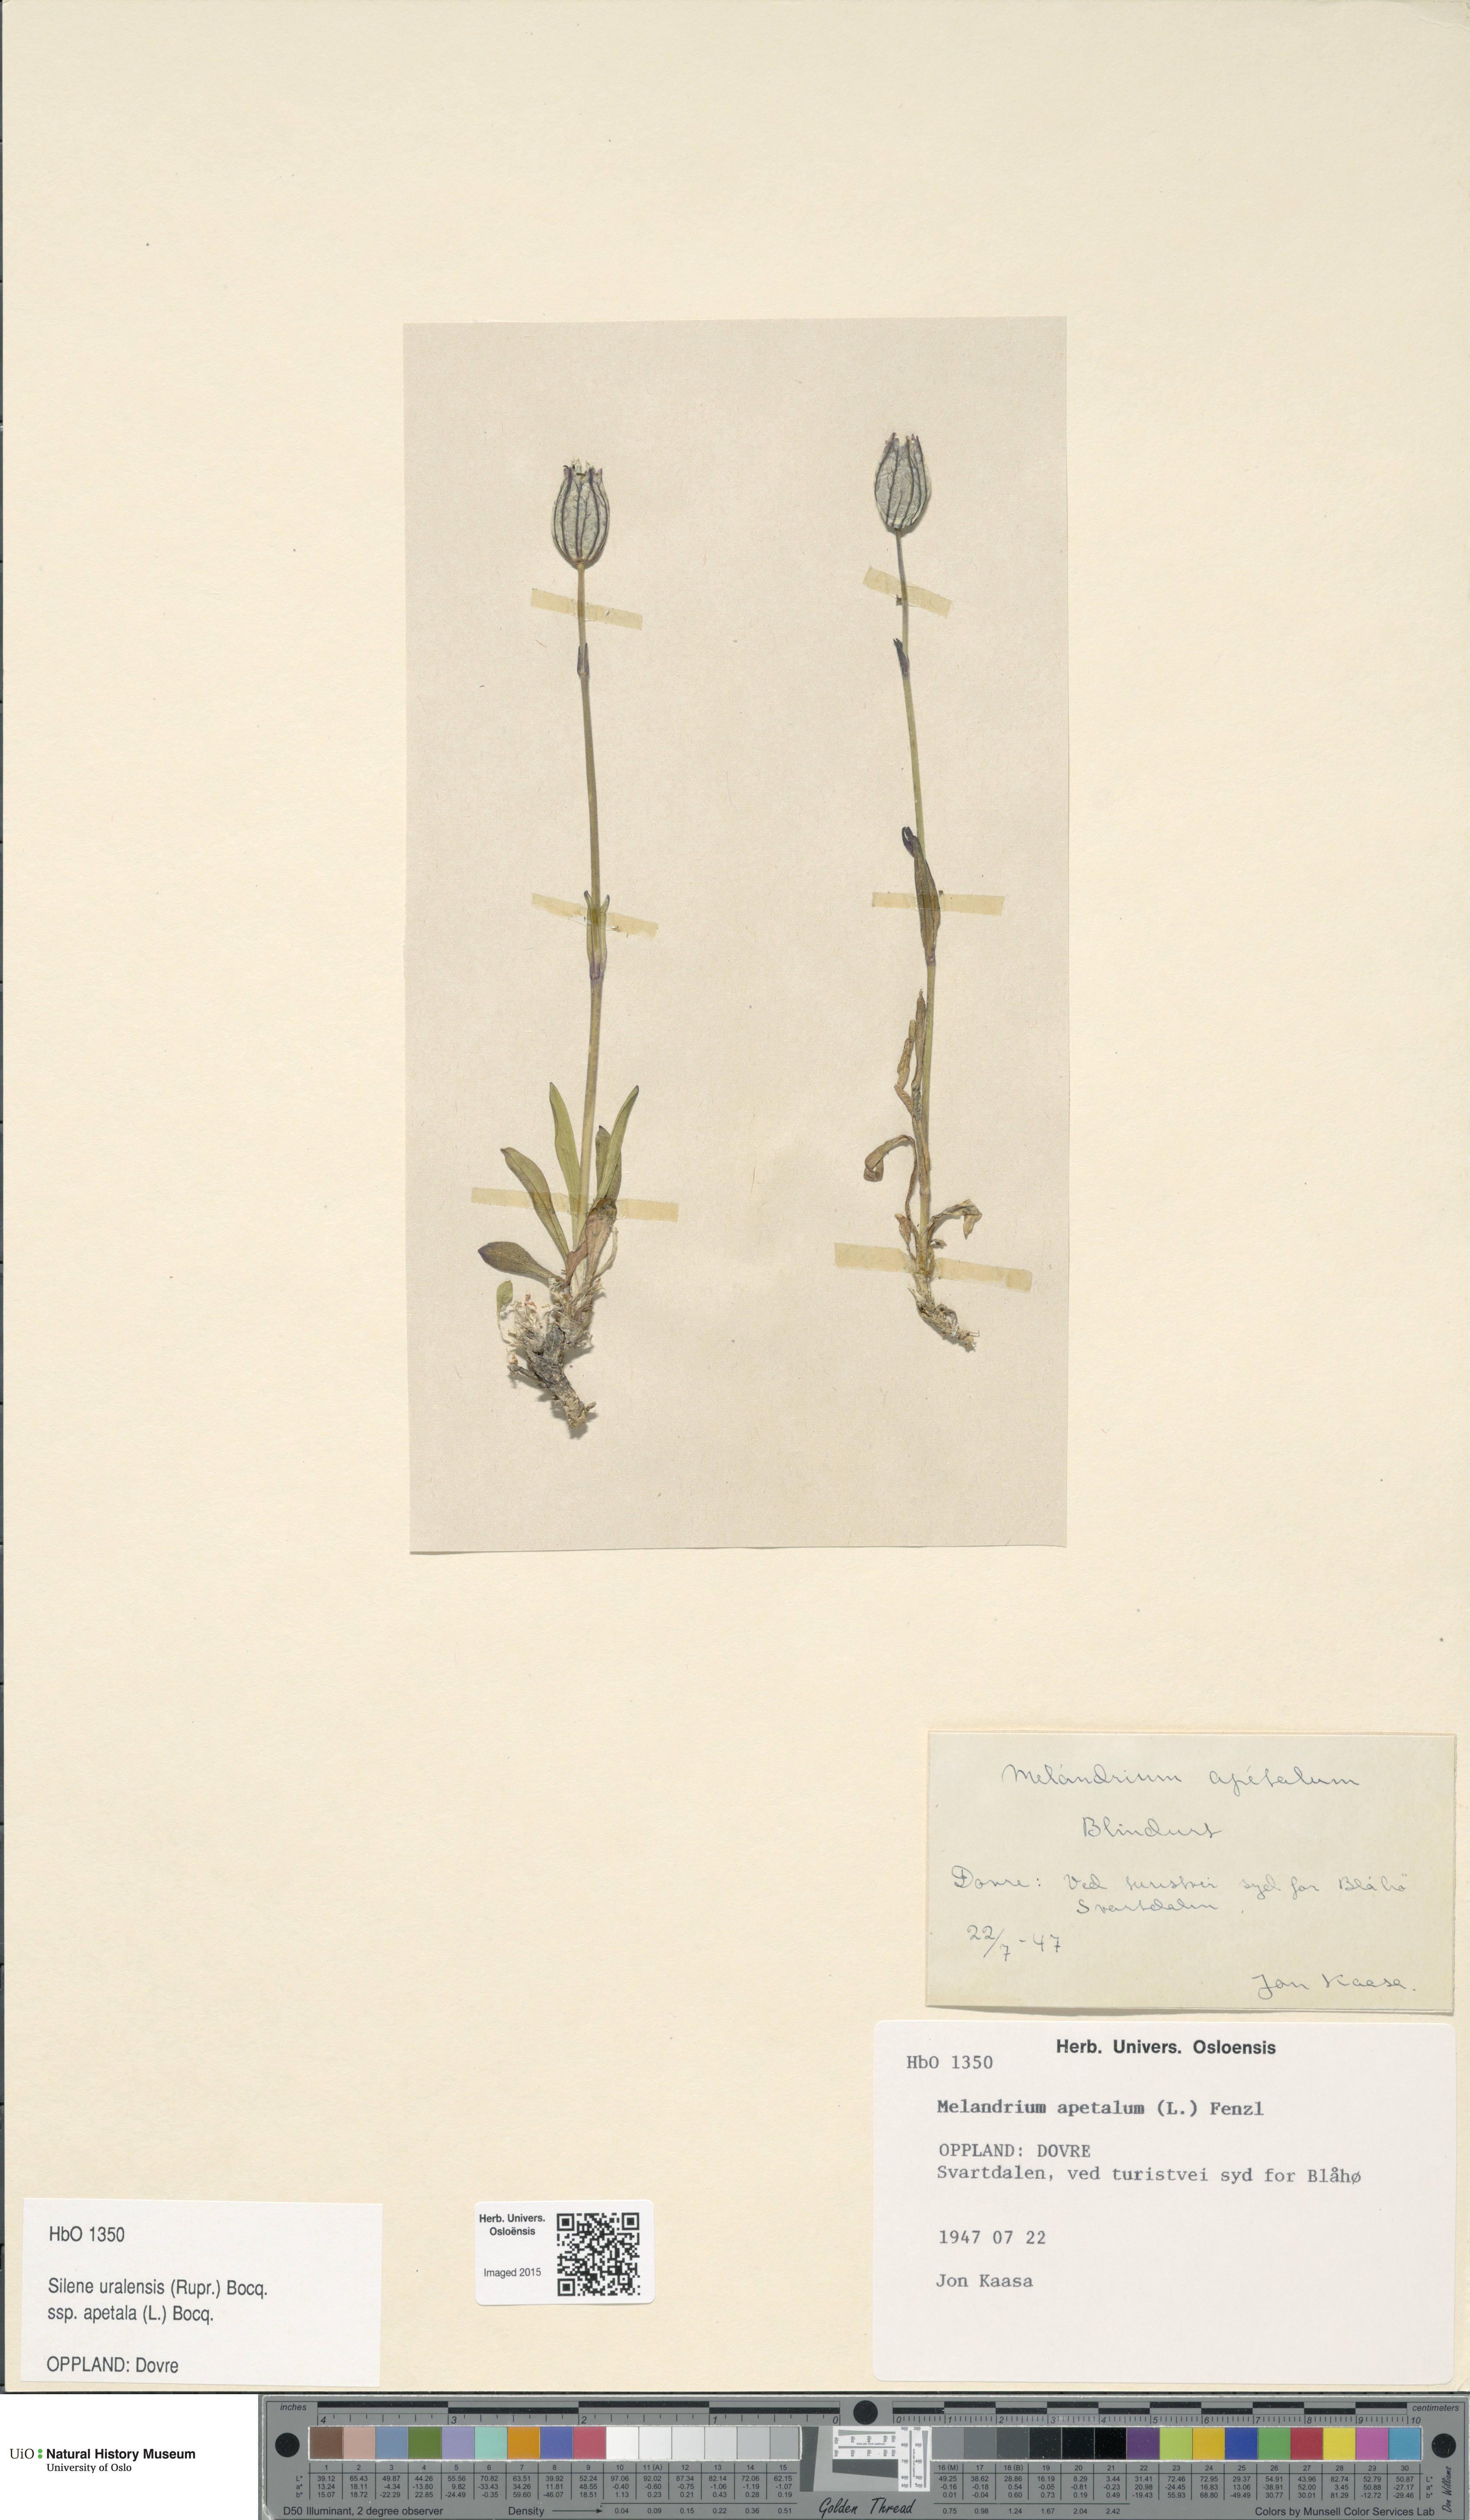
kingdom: Plantae
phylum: Tracheophyta
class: Magnoliopsida
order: Caryophyllales
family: Caryophyllaceae
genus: Silene
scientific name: Silene wahlbergella
